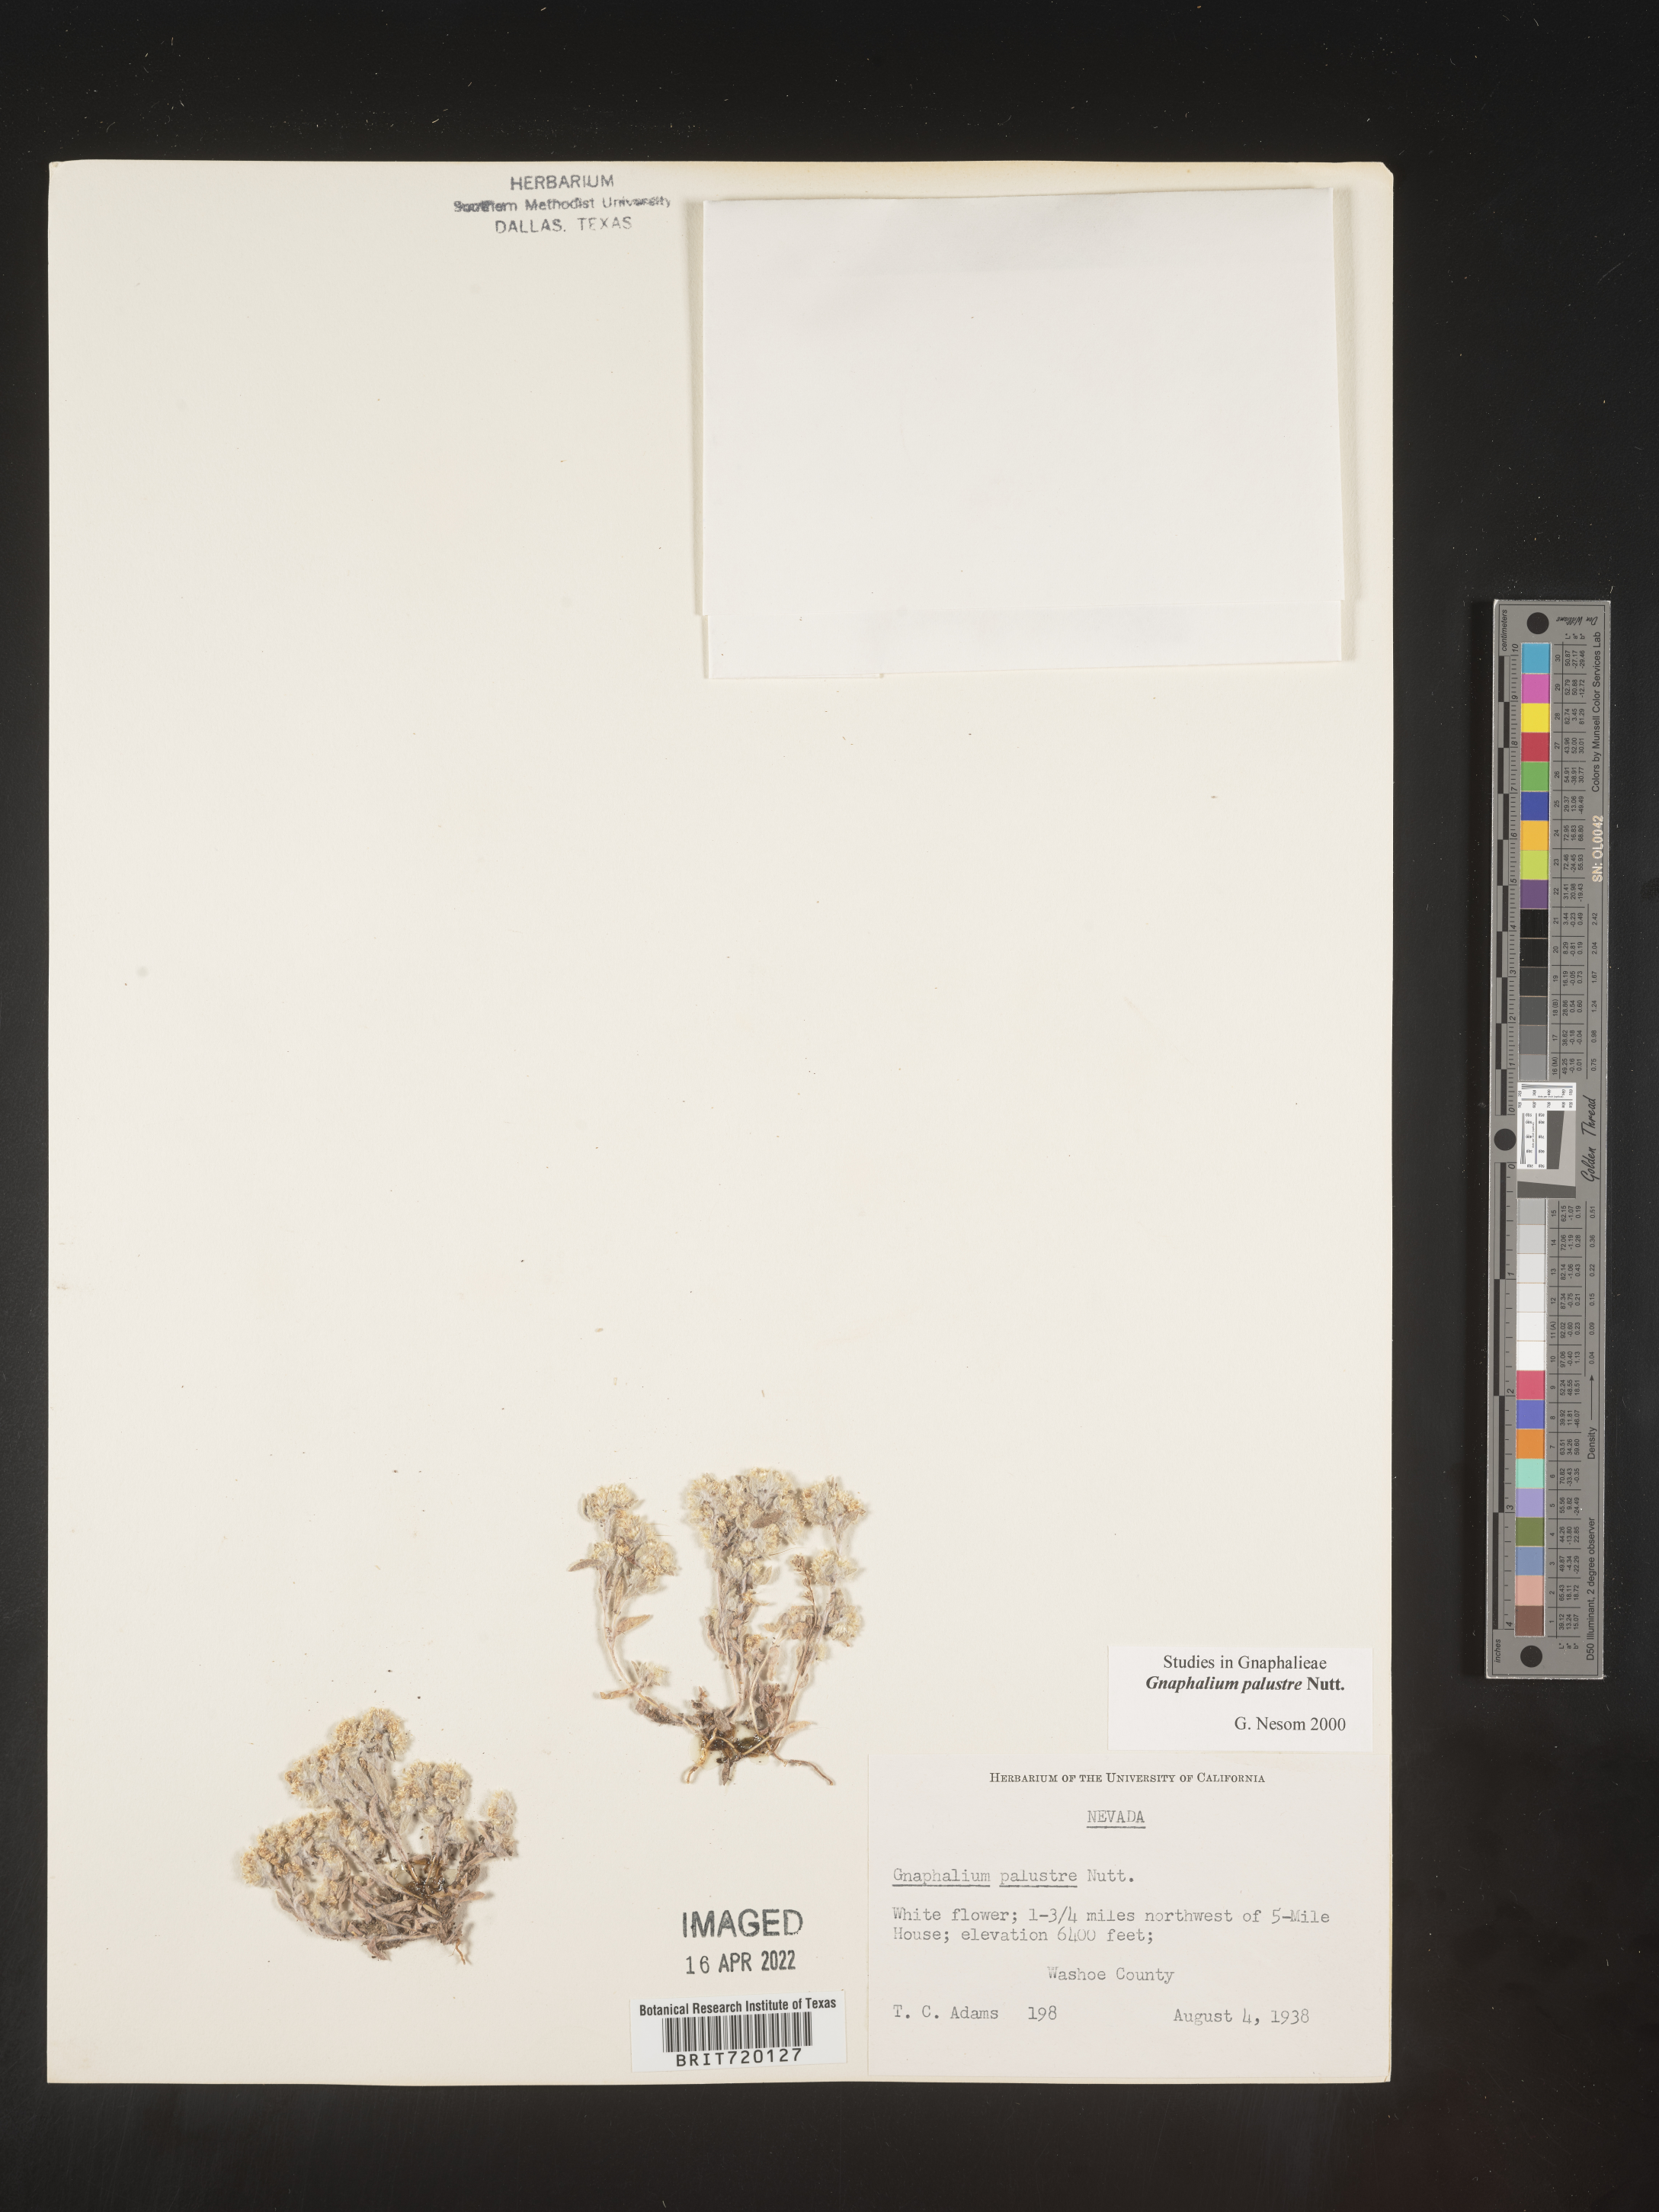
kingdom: Plantae
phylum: Tracheophyta
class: Magnoliopsida
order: Asterales
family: Asteraceae
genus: Gnaphalium
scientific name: Gnaphalium palustre
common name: Western marsh cudweed
